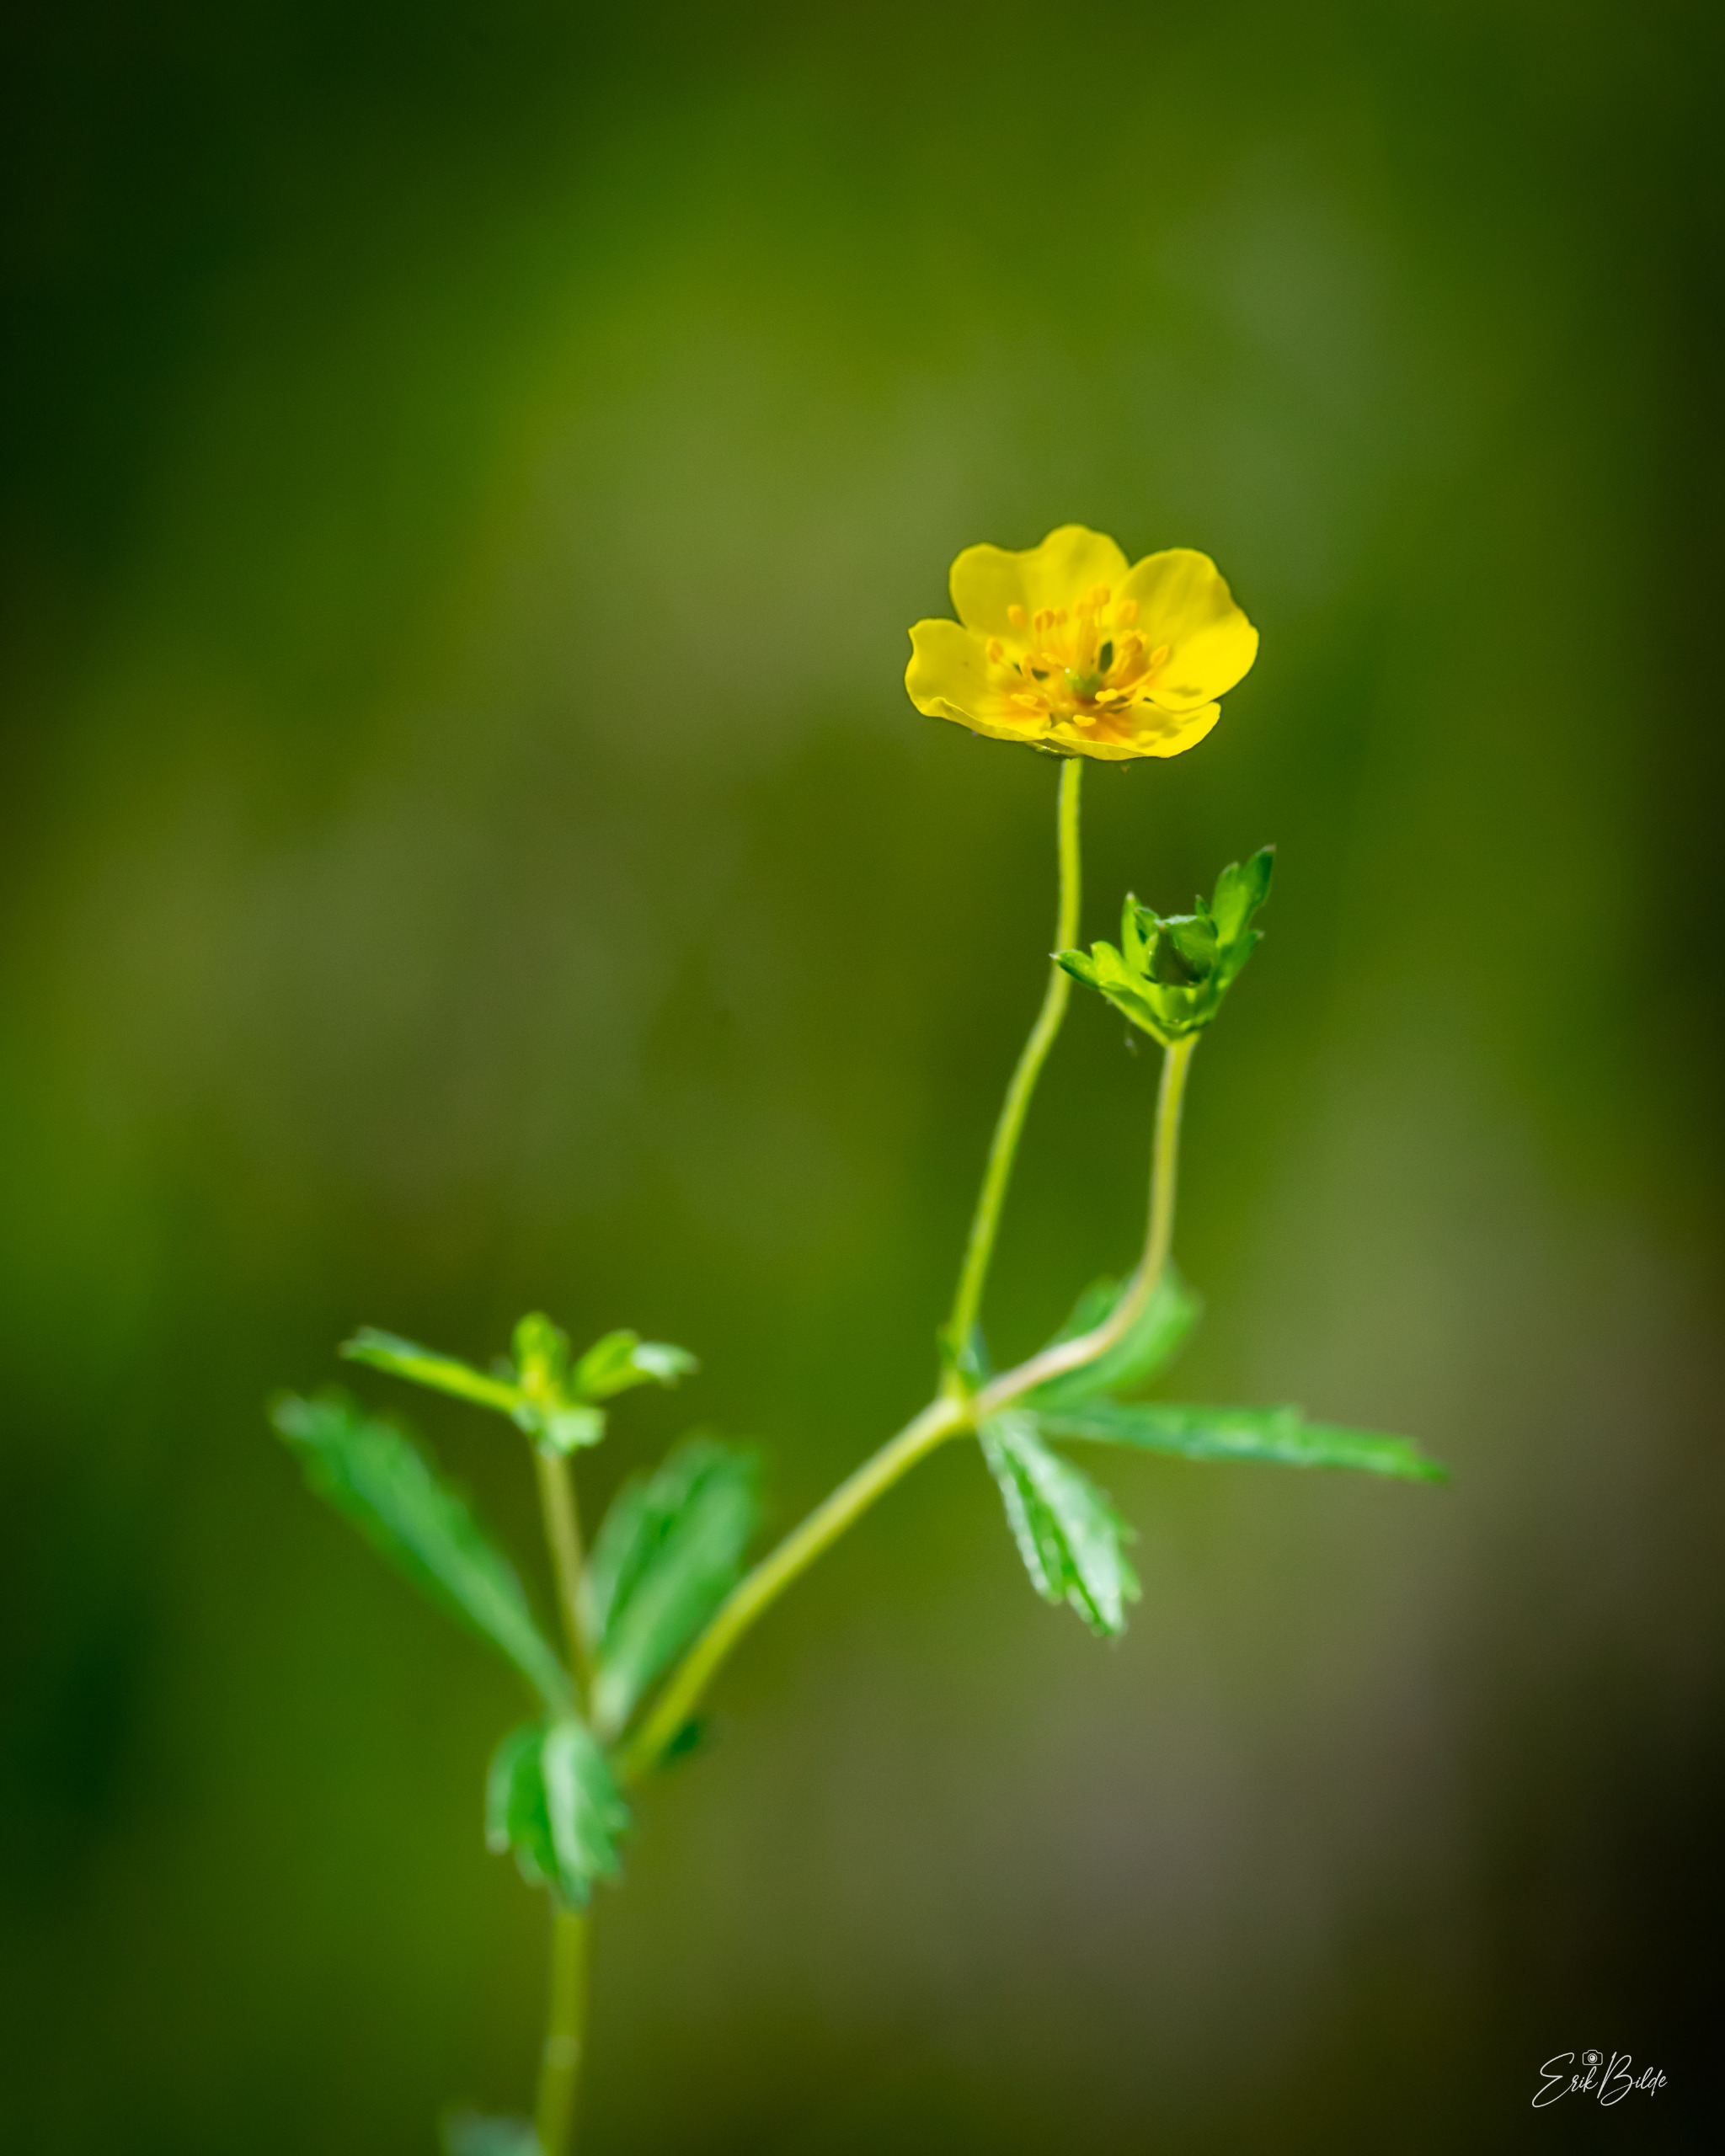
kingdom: Plantae
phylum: Tracheophyta
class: Magnoliopsida
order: Rosales
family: Rosaceae
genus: Potentilla
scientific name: Potentilla erecta
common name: Tormentil
